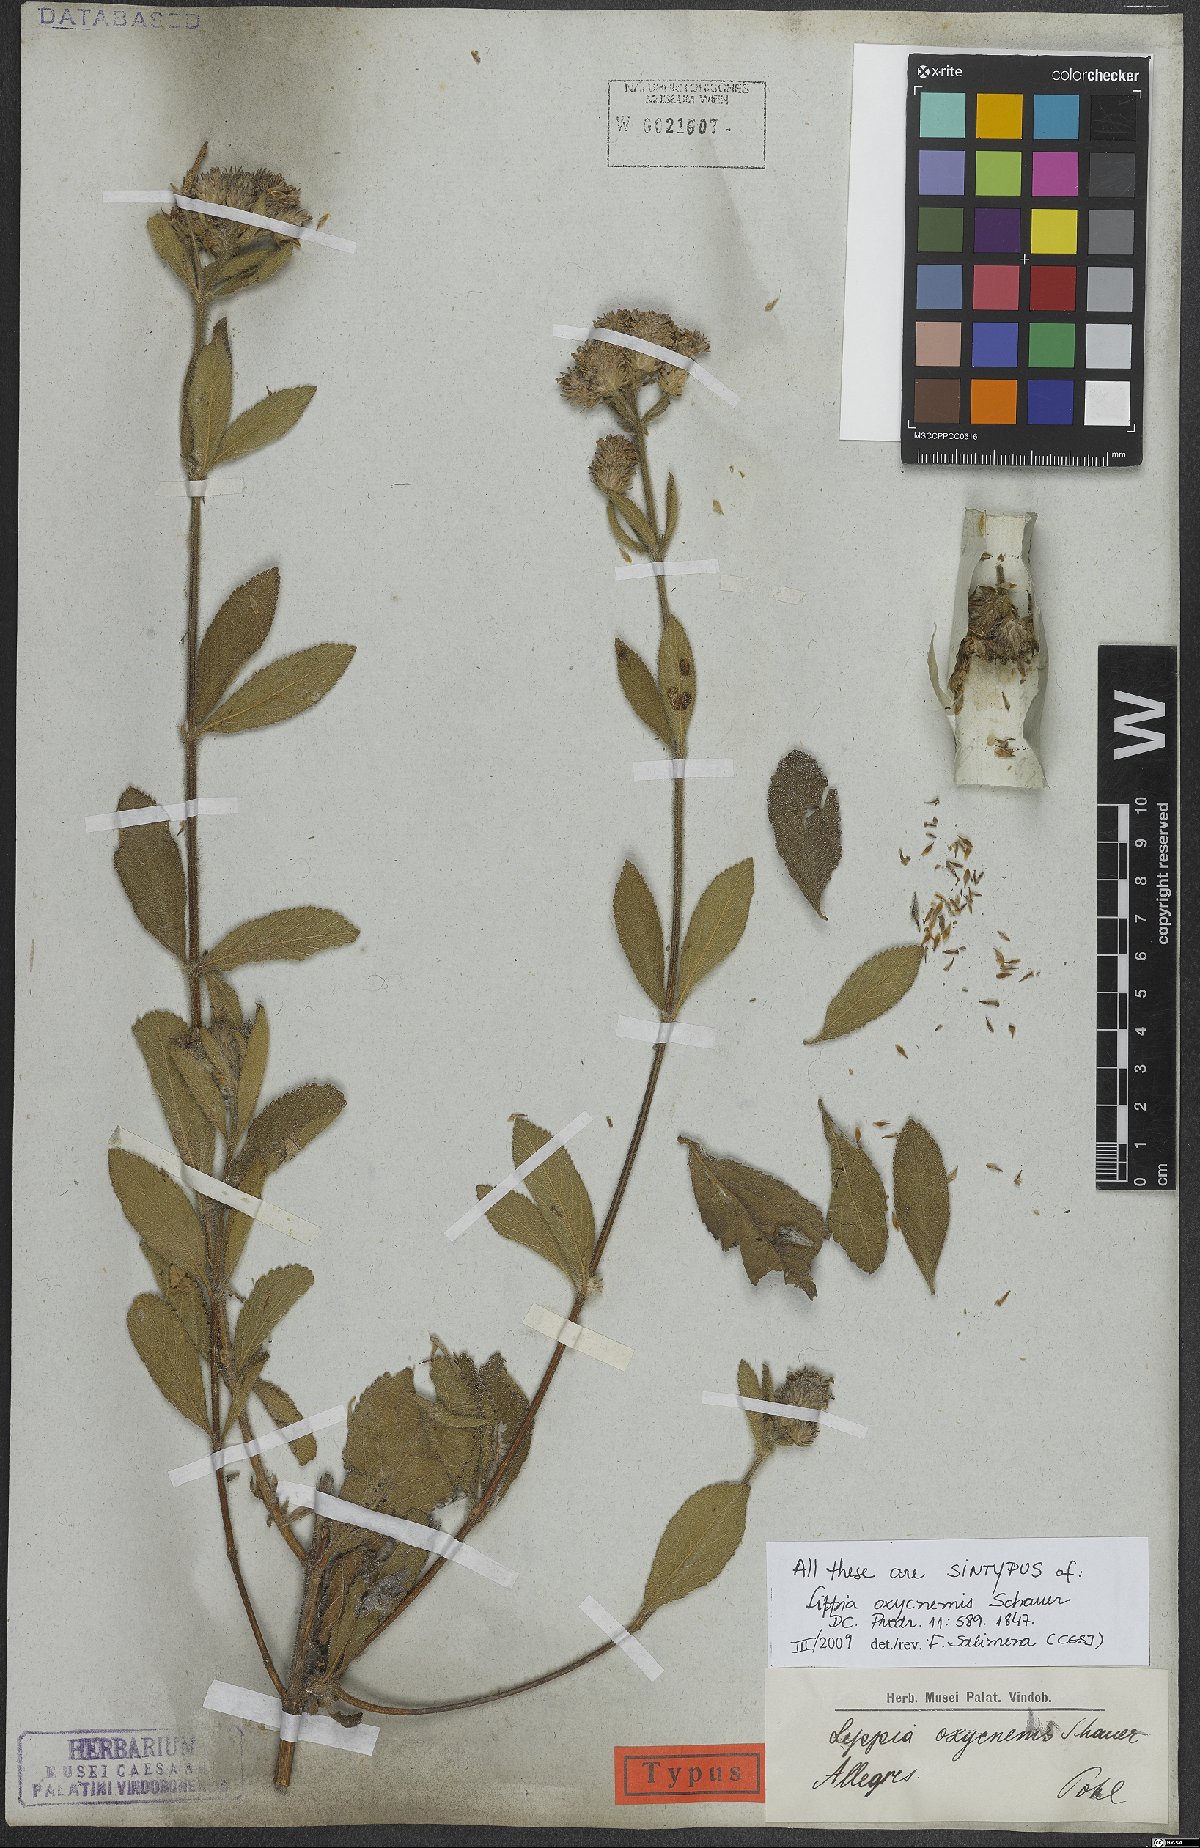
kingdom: Plantae
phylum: Tracheophyta
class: Magnoliopsida
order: Lamiales
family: Verbenaceae
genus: Lippia
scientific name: Lippia oxycnemis
